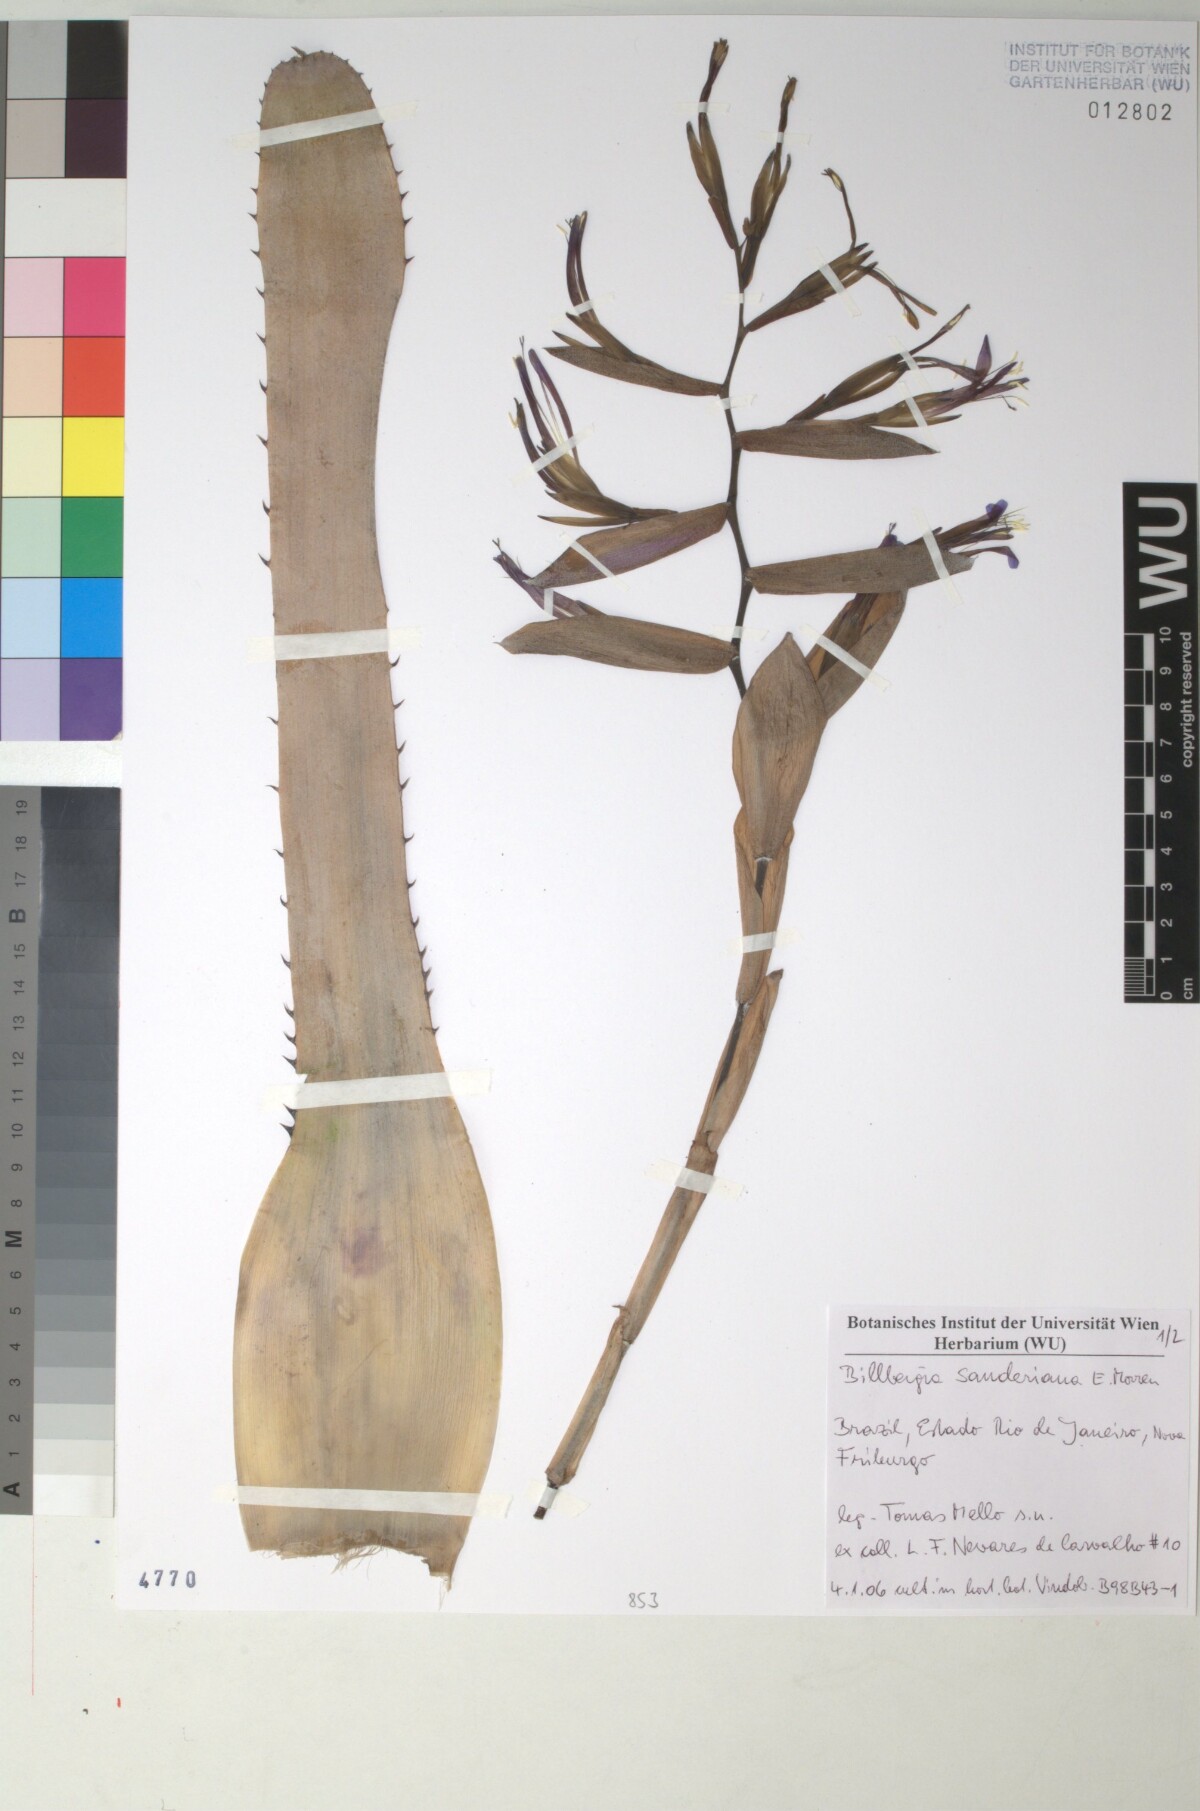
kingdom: Plantae
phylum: Tracheophyta
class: Liliopsida
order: Poales
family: Bromeliaceae
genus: Billbergia
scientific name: Billbergia sanderiana
